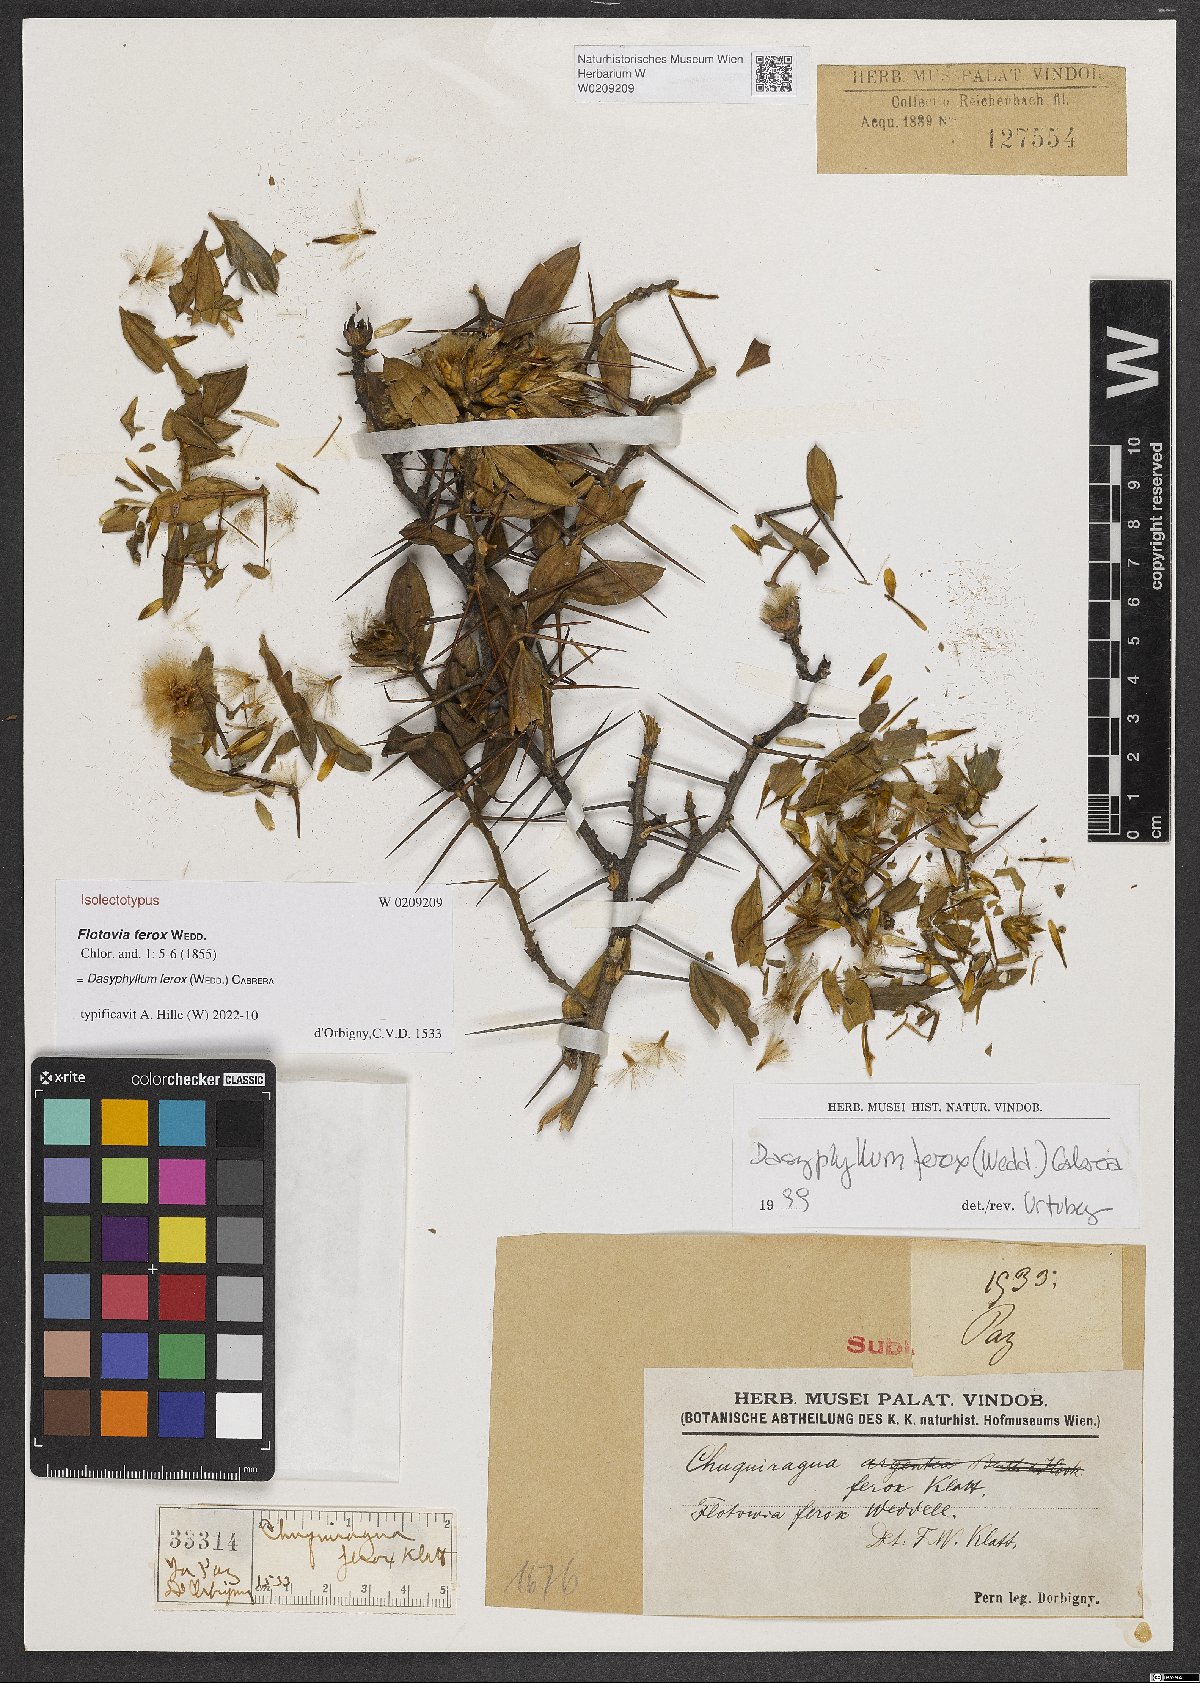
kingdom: Plantae
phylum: Tracheophyta
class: Magnoliopsida
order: Asterales
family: Asteraceae
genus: Dasyphyllum
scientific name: Dasyphyllum ferox
